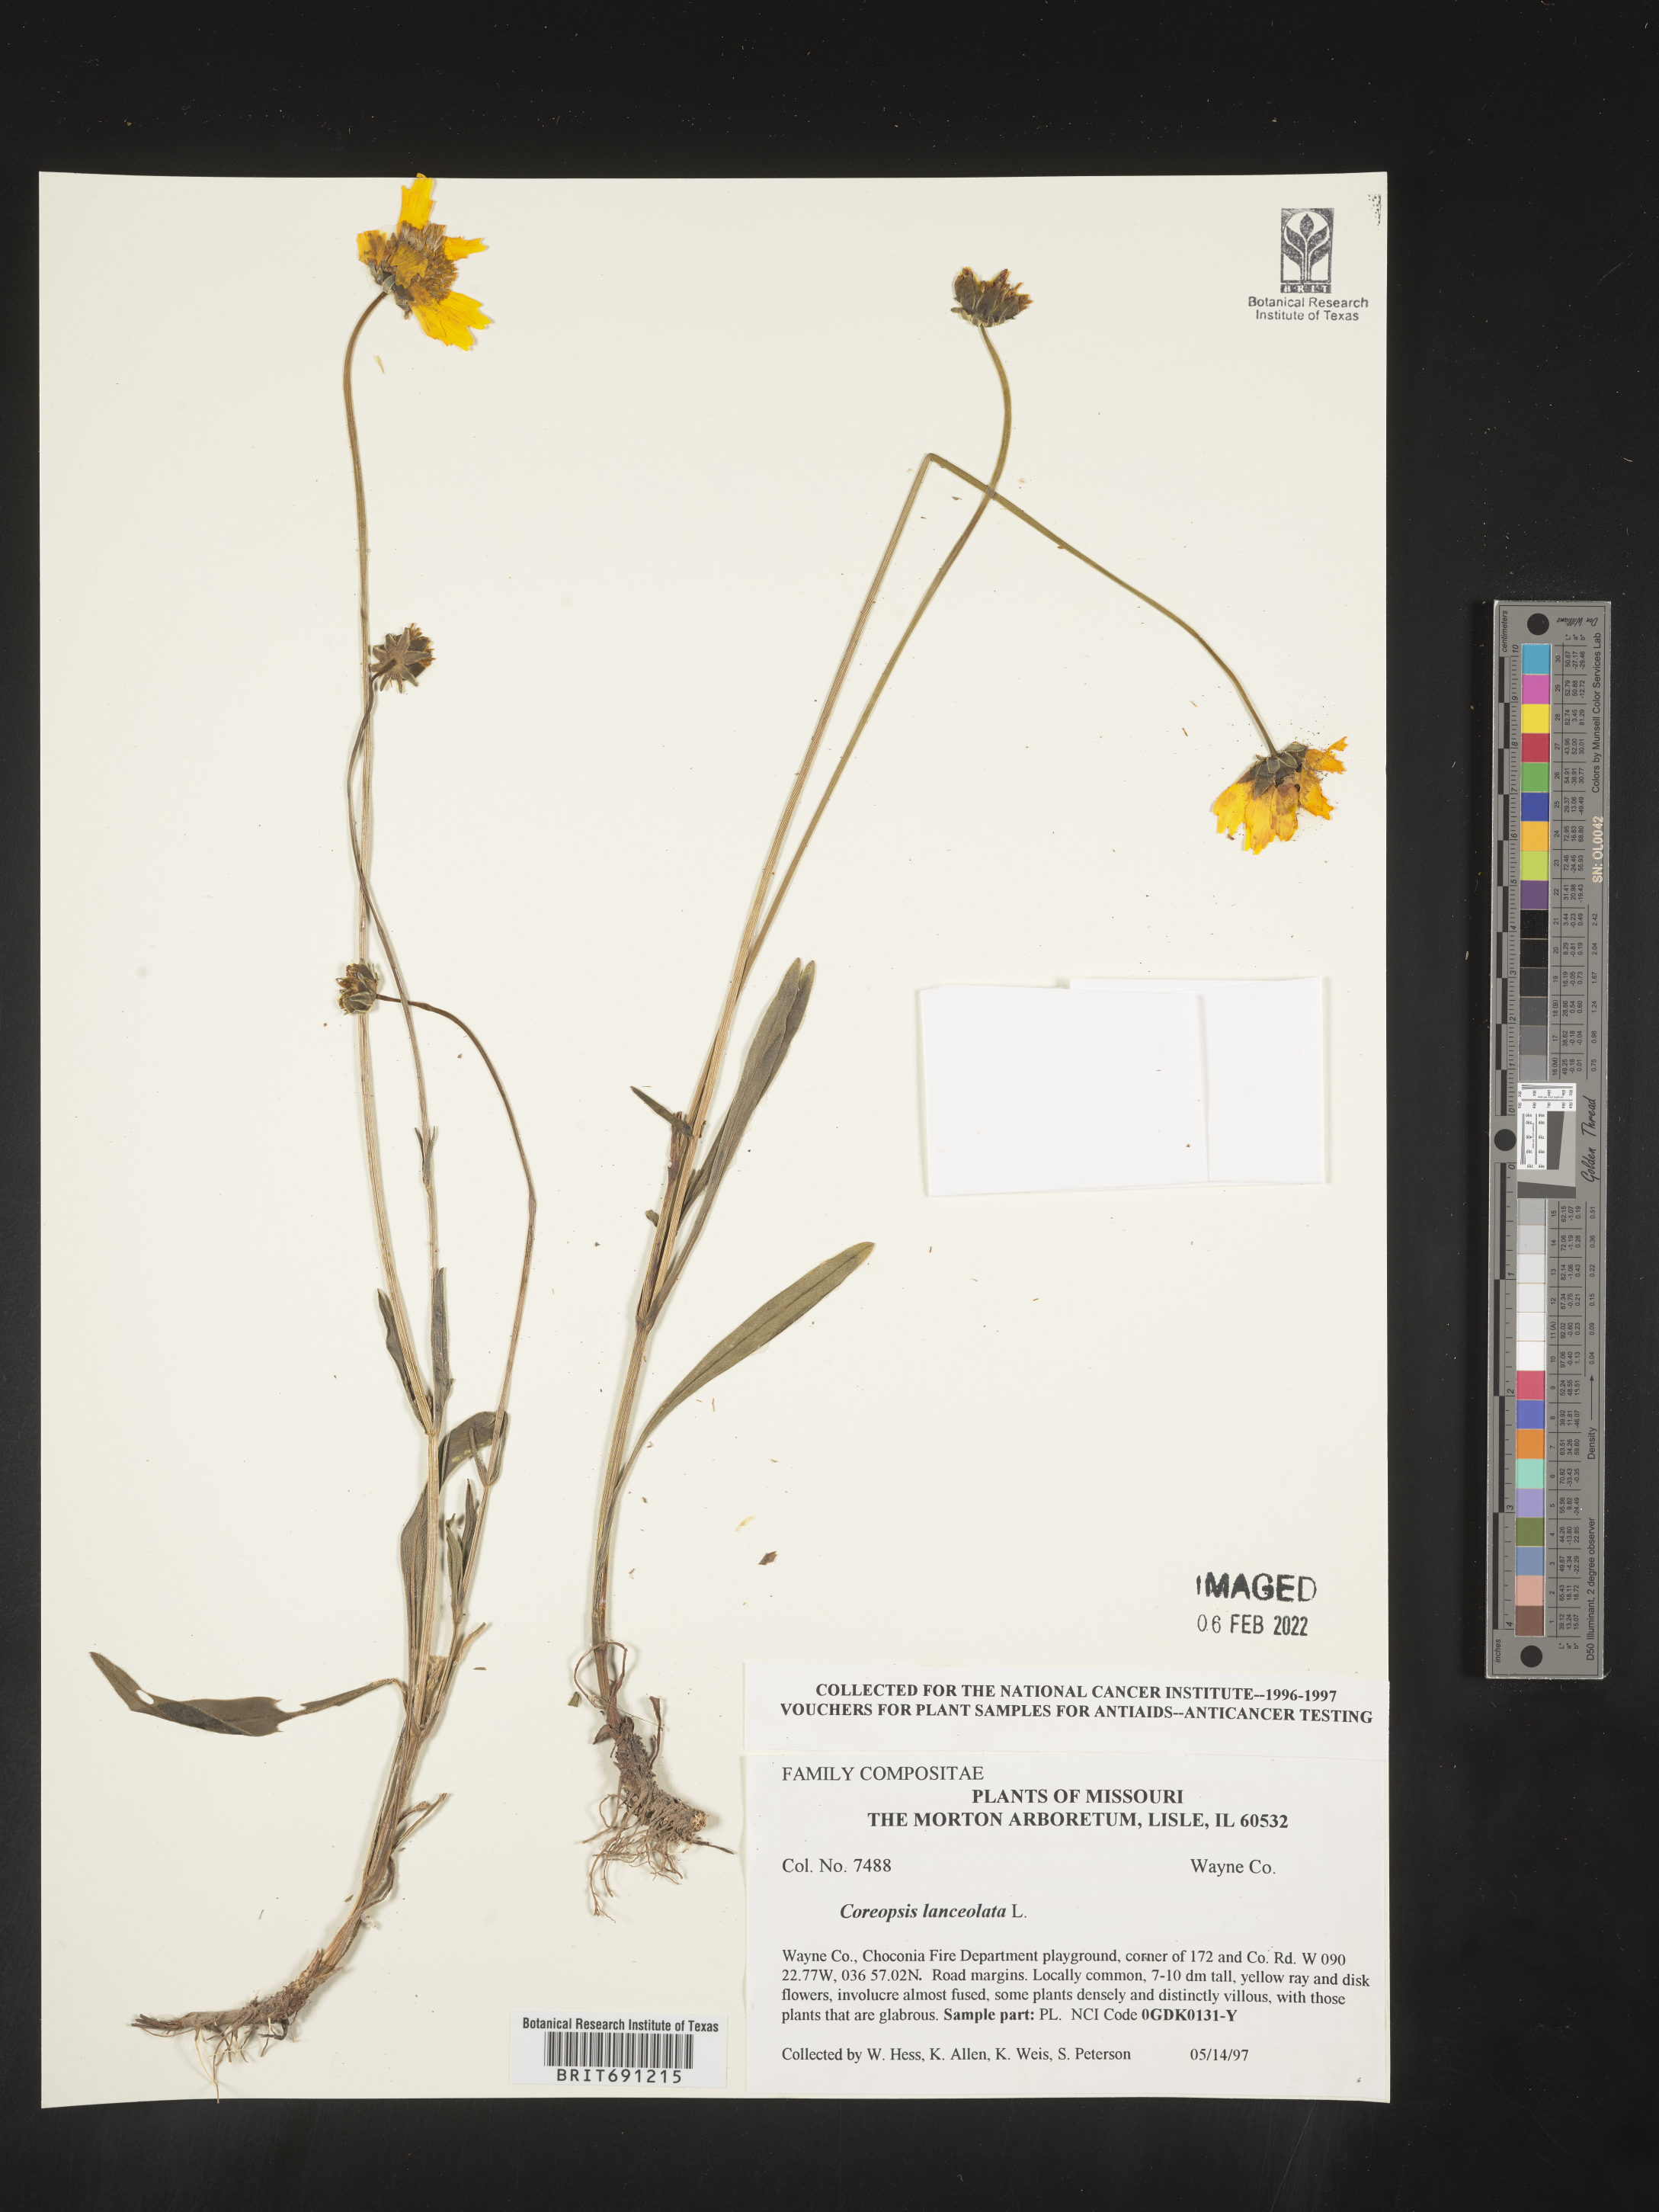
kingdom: Plantae
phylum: Tracheophyta
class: Magnoliopsida
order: Asterales
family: Asteraceae
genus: Coreopsis
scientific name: Coreopsis lanceolata
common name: Garden coreopsis
